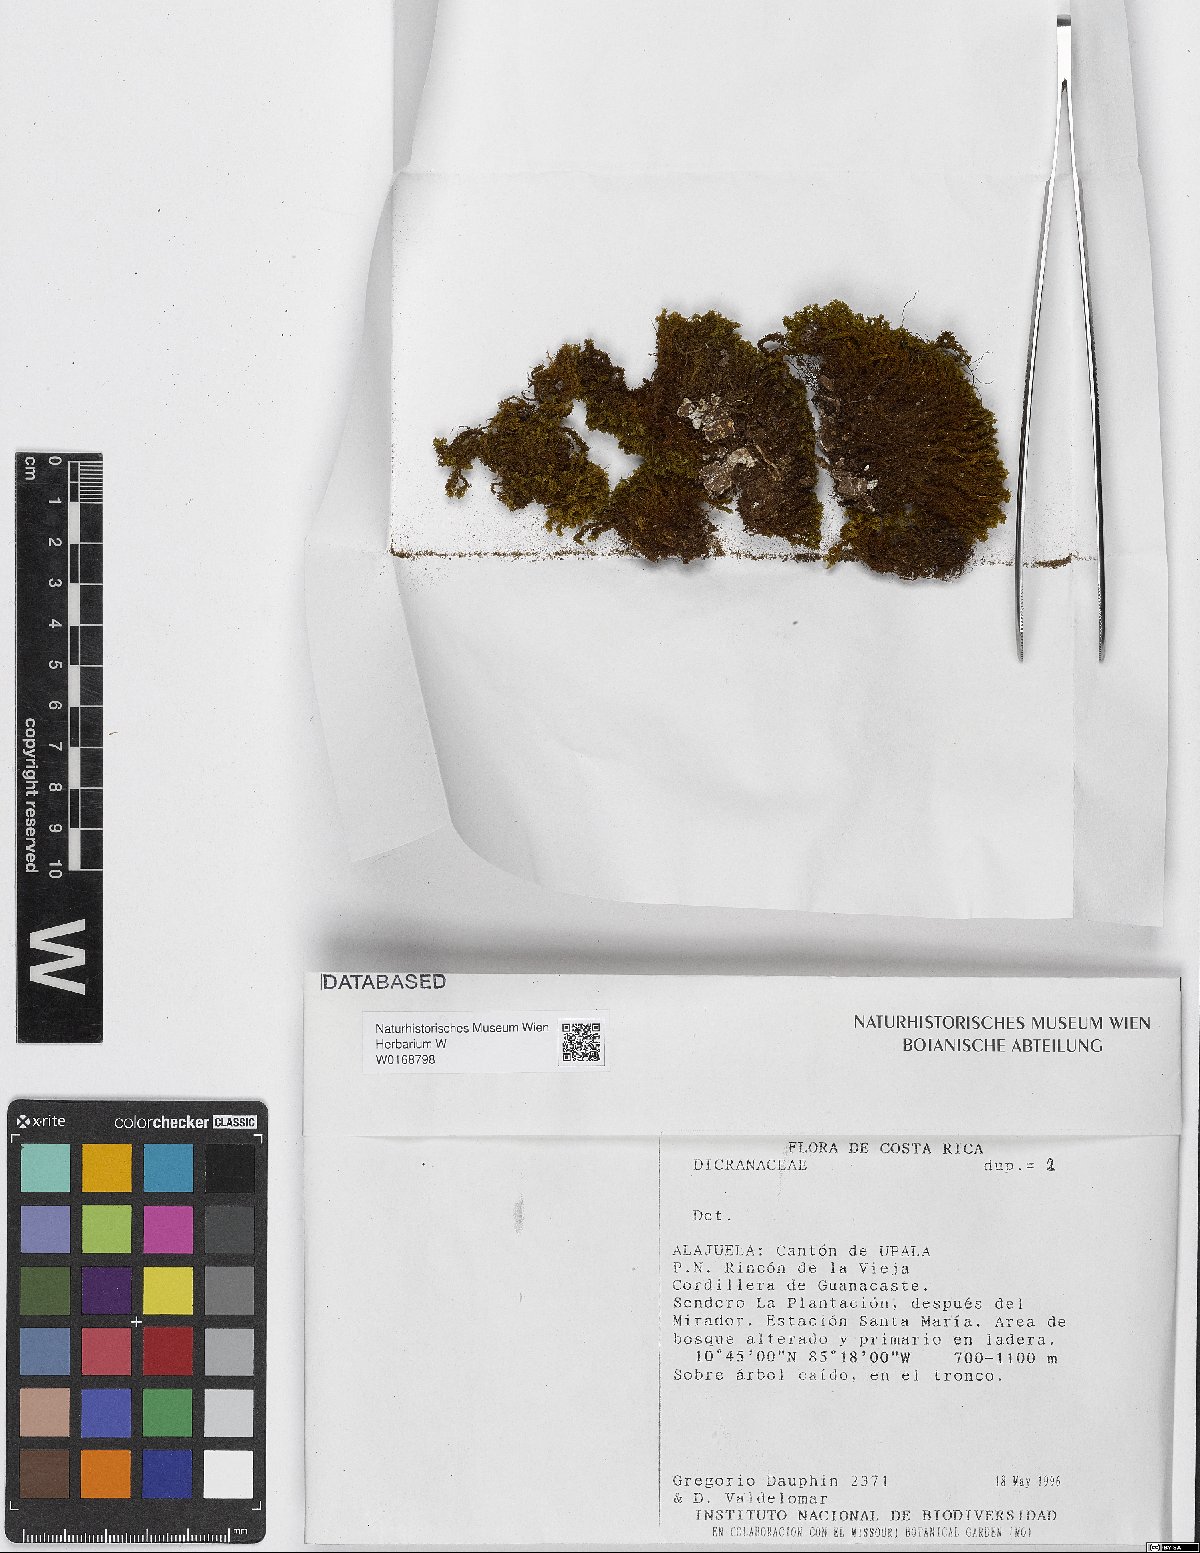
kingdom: Plantae
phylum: Bryophyta
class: Bryopsida
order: Dicranales
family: Dicranaceae
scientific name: Dicranaceae
